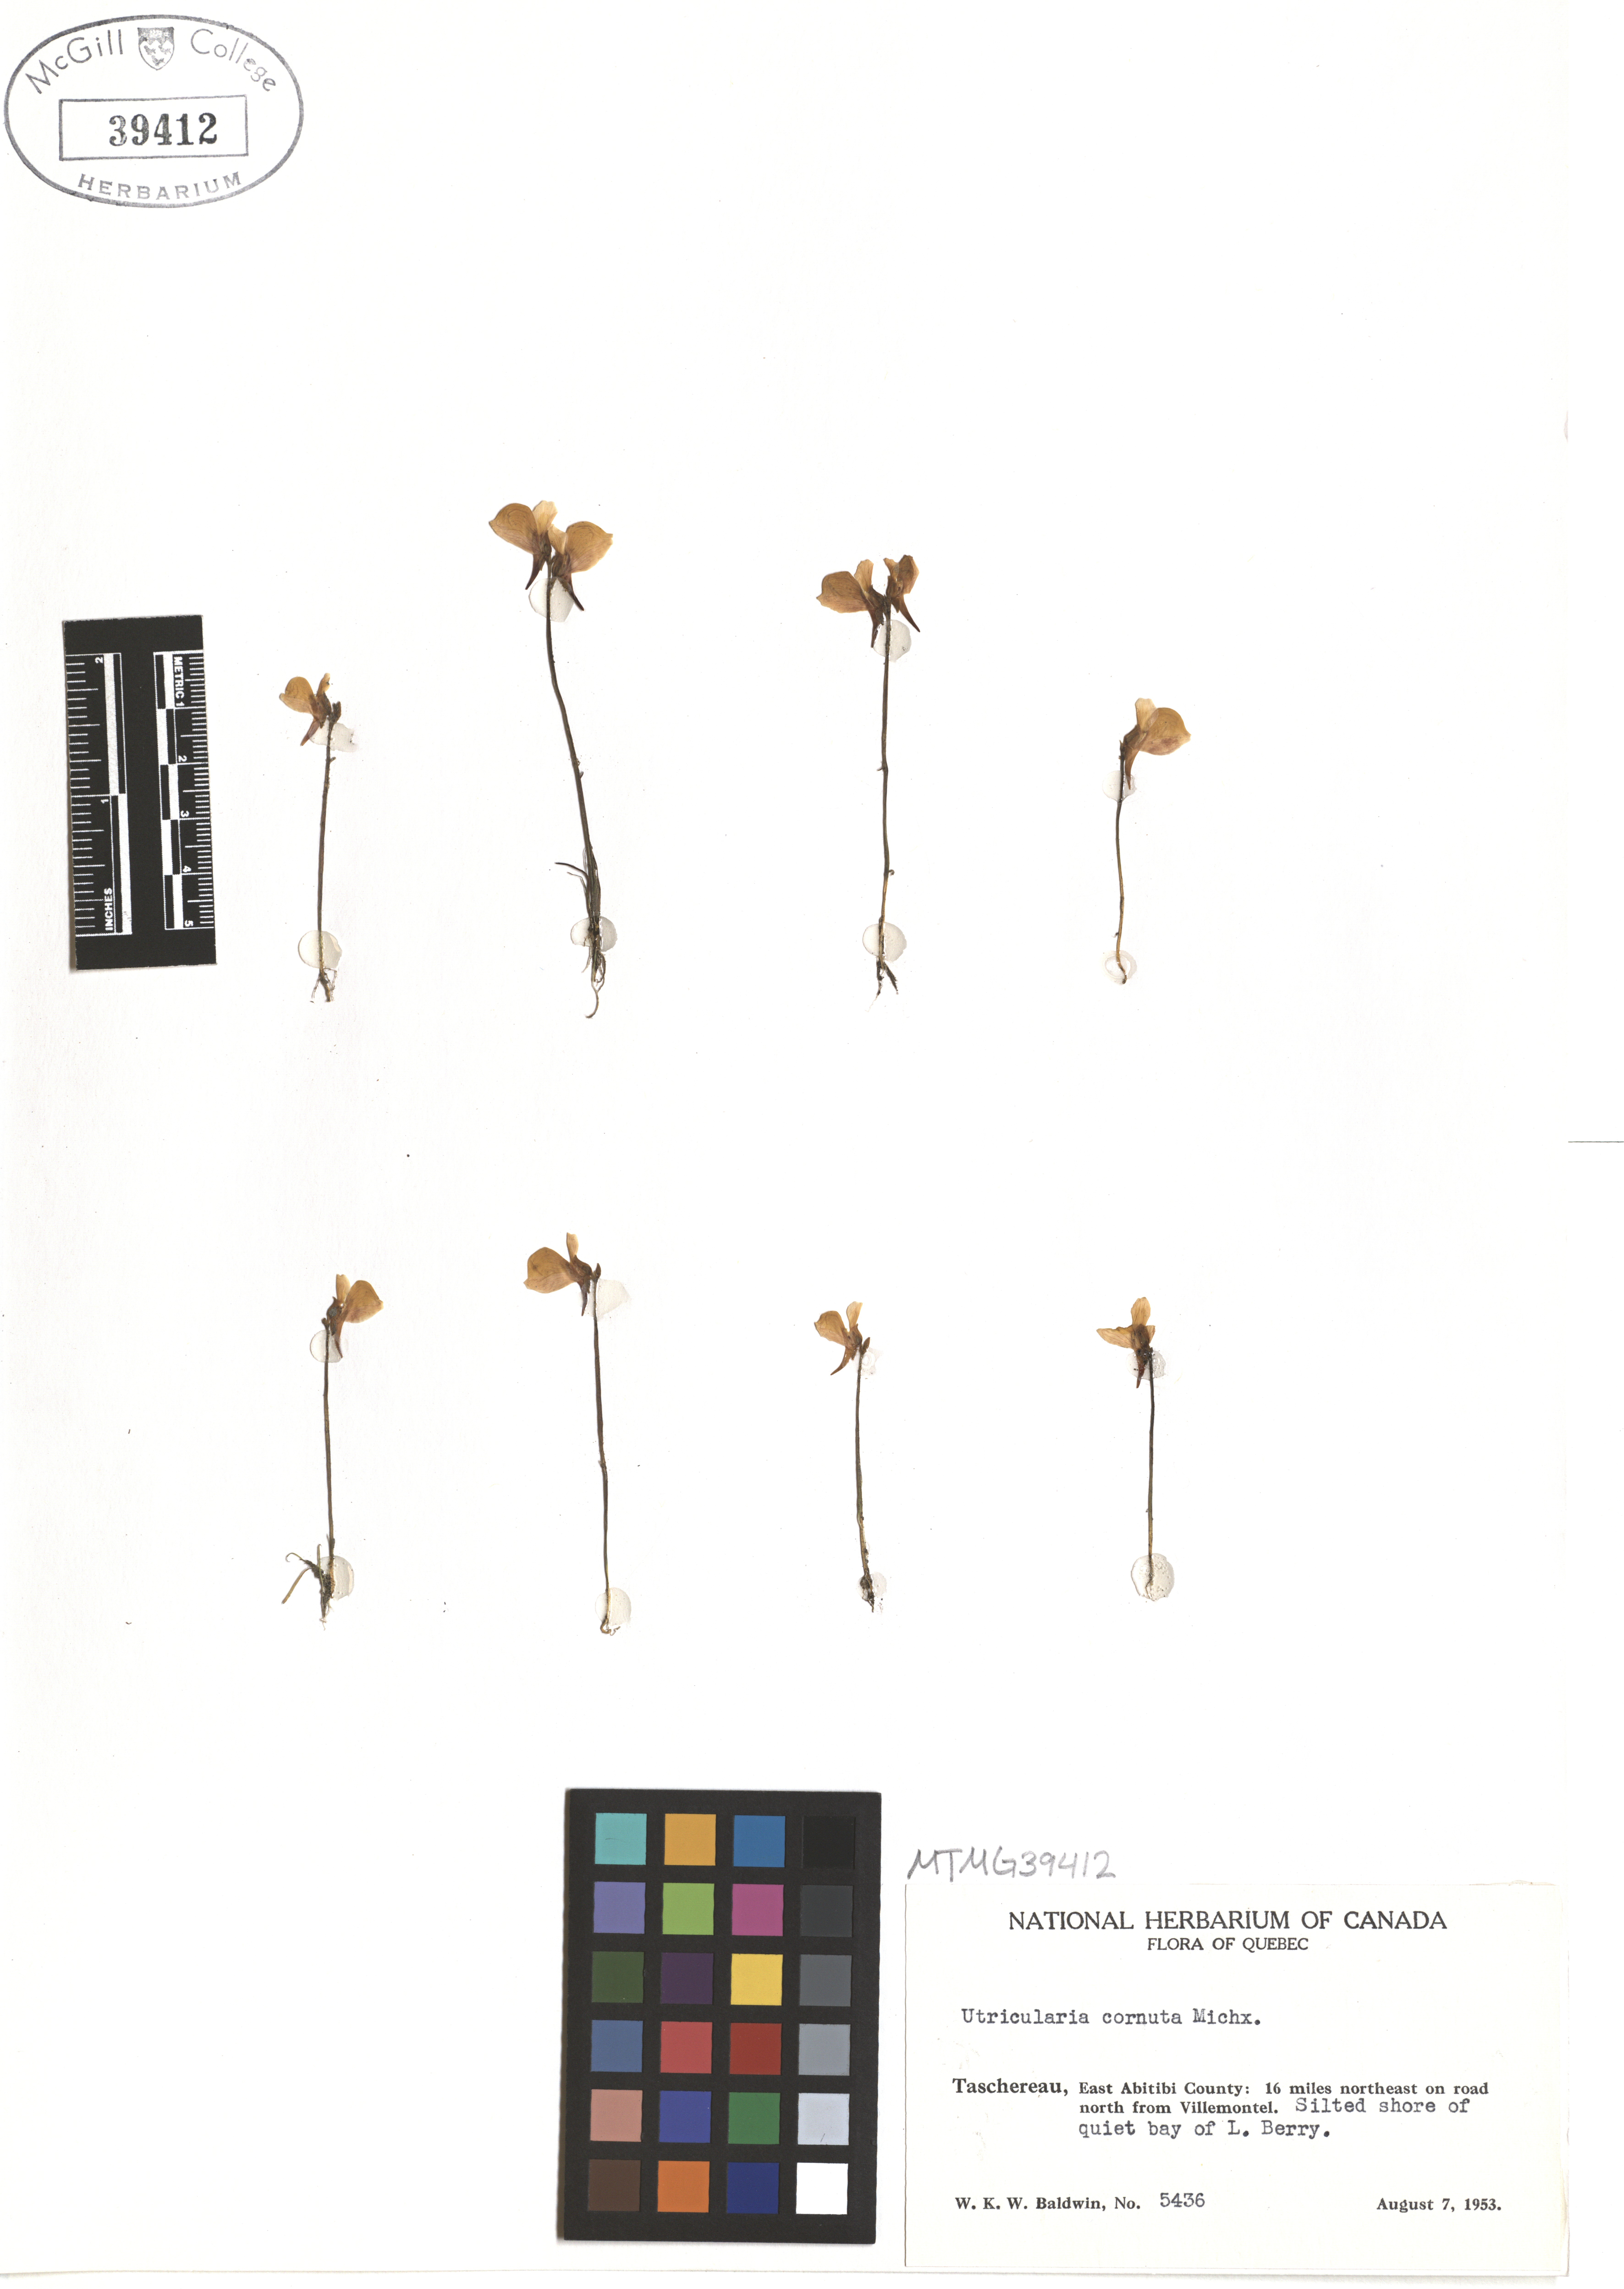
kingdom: Plantae
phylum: Tracheophyta
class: Magnoliopsida
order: Lamiales
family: Lentibulariaceae
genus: Utricularia
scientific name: Utricularia cornuta
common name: Horned bladderwort
